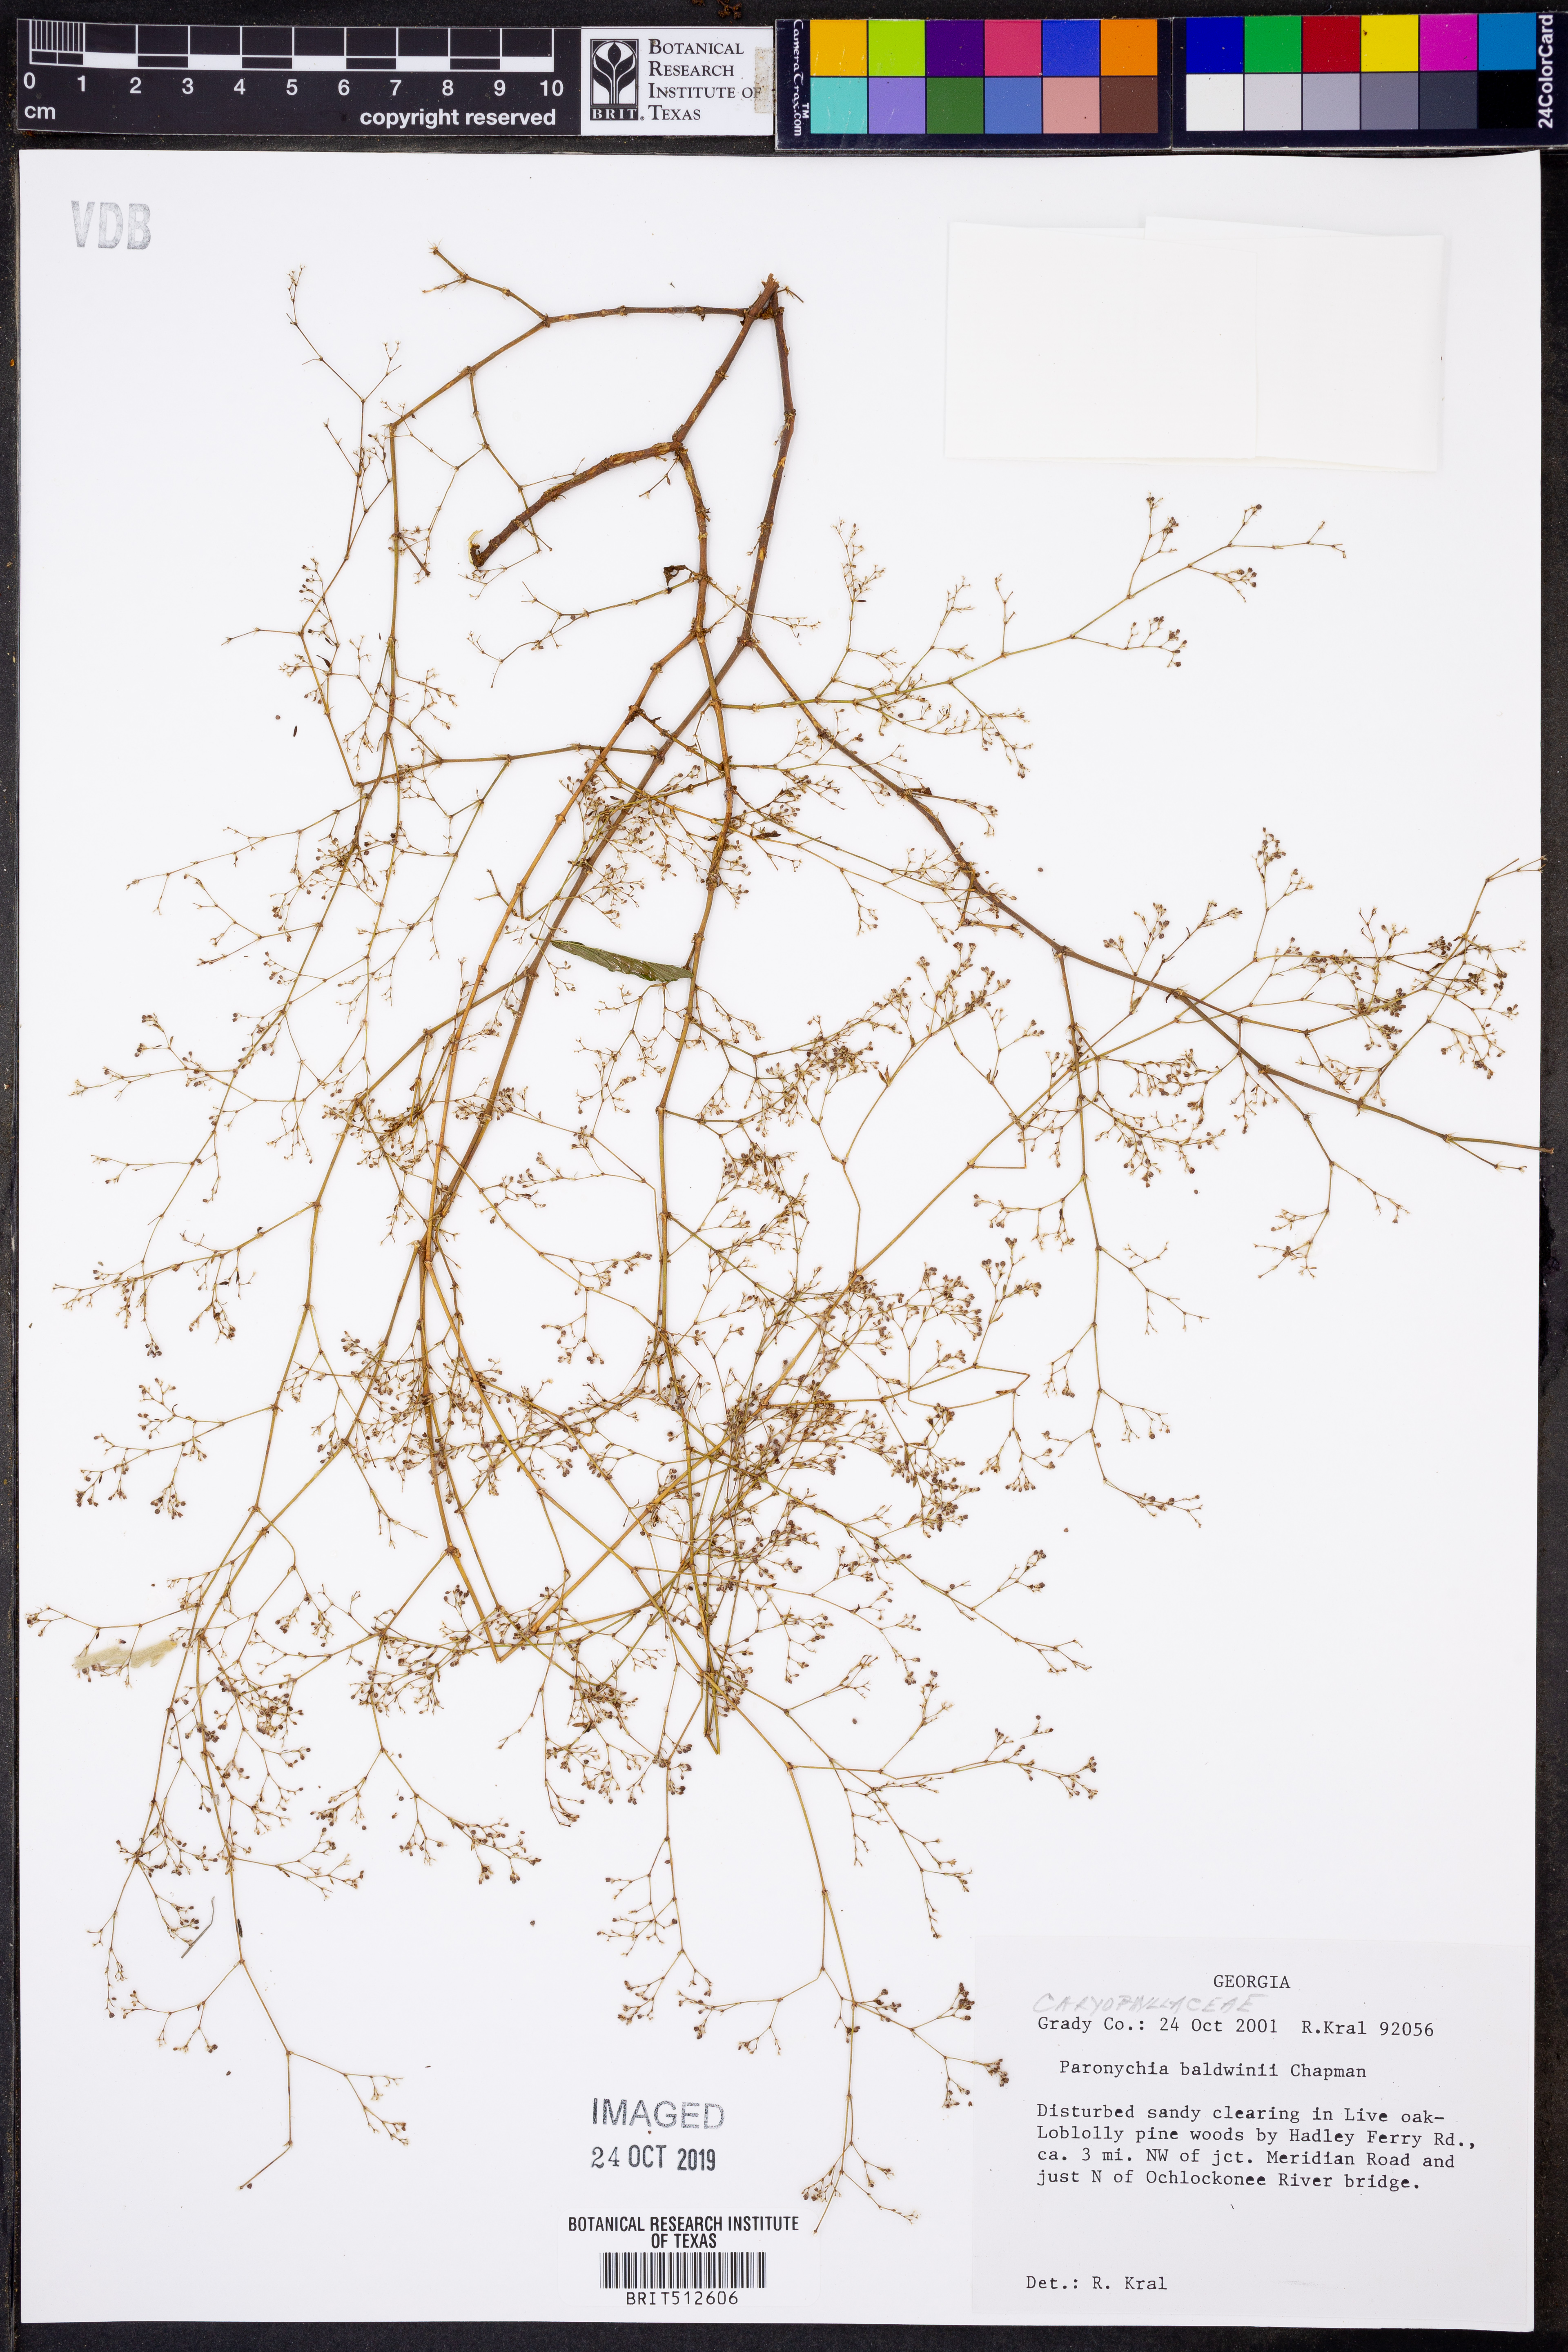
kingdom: Plantae
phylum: Tracheophyta
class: Magnoliopsida
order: Caryophyllales
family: Caryophyllaceae
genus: Paronychia
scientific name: Paronychia baldwinii
